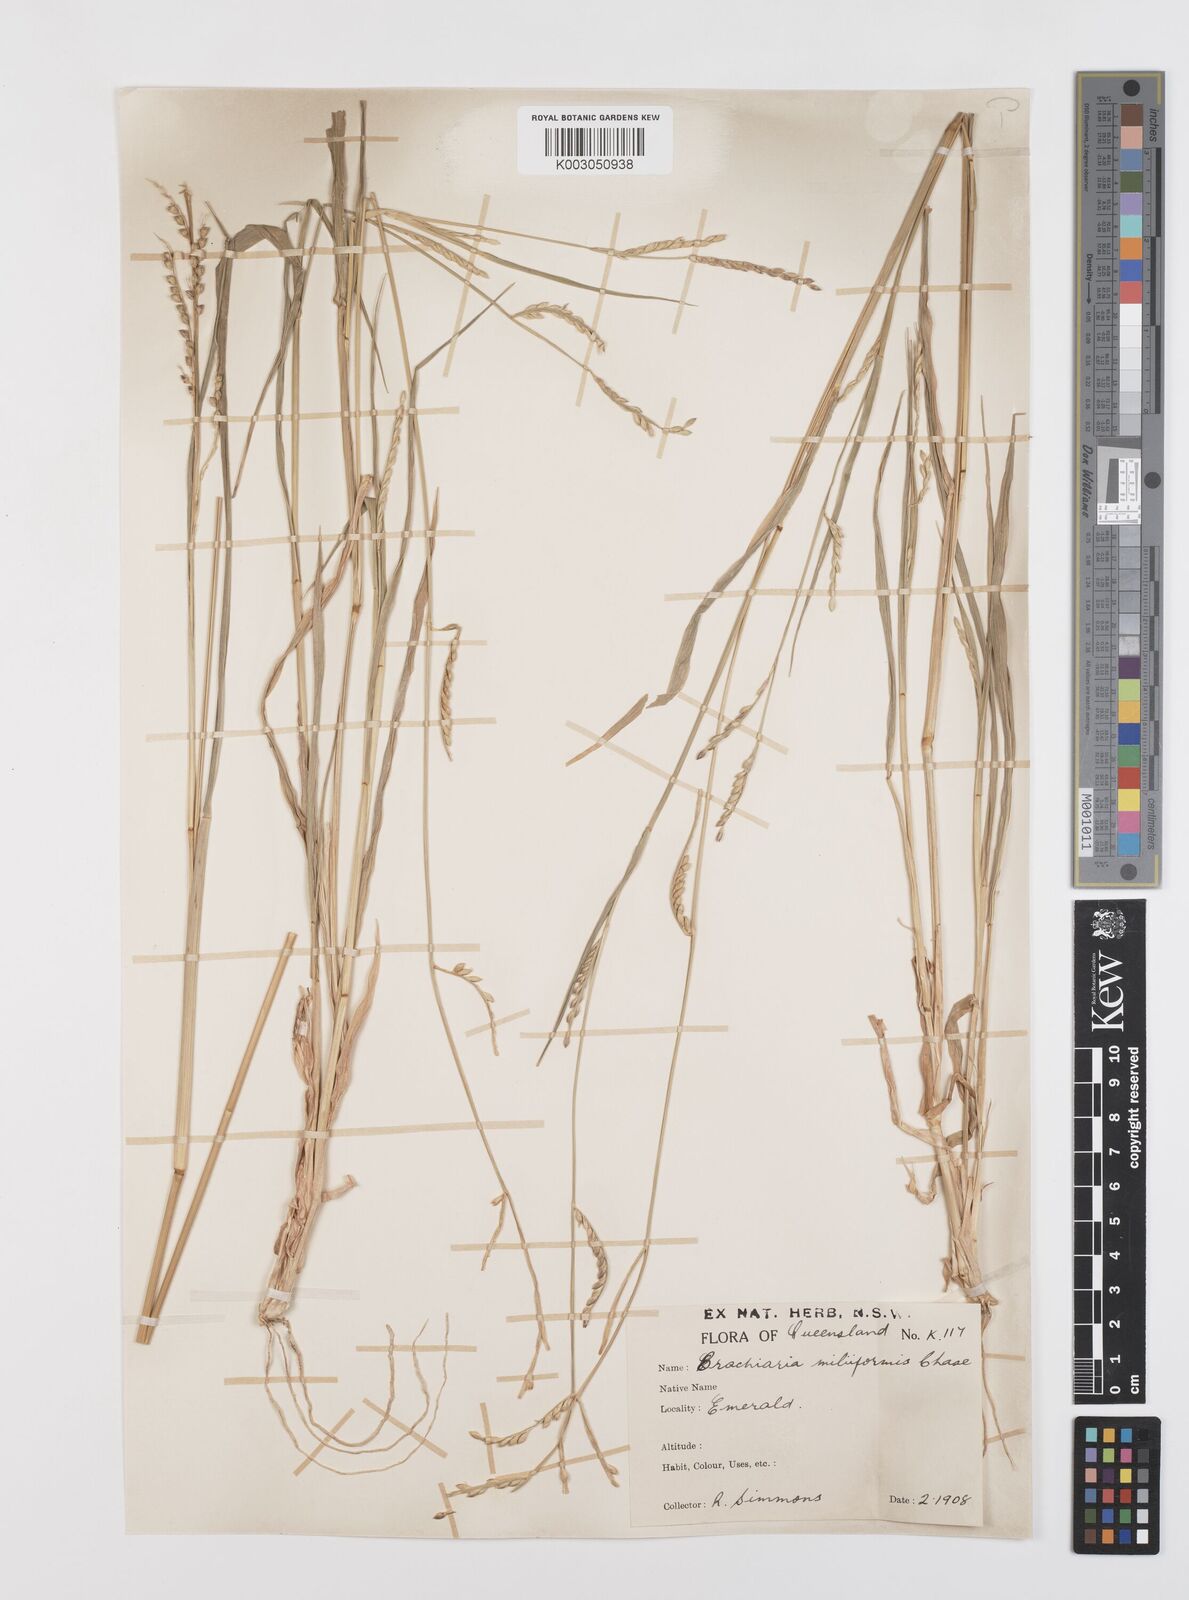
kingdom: Plantae
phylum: Tracheophyta
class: Liliopsida
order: Poales
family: Poaceae
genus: Urochloa
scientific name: Urochloa subquadripara
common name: Armgrass millet
